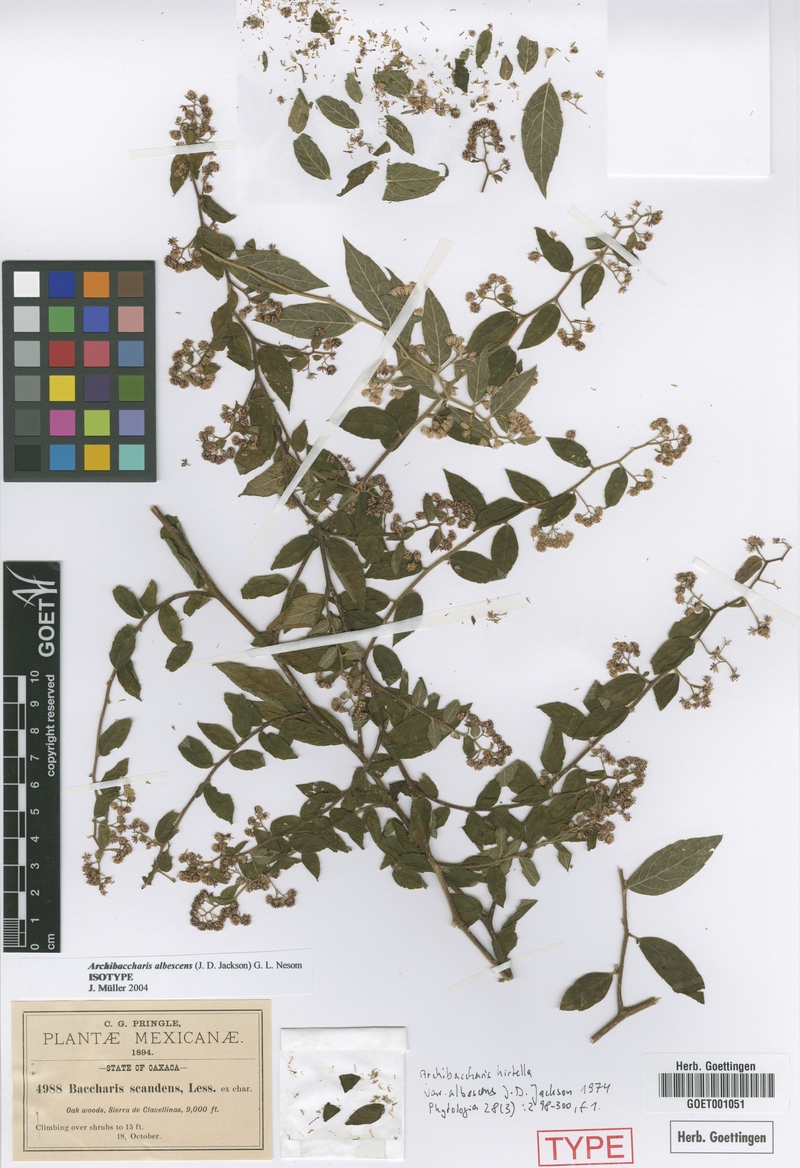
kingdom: Plantae
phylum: Tracheophyta
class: Magnoliopsida
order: Asterales
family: Asteraceae
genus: Archibaccharis
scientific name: Archibaccharis albescens
